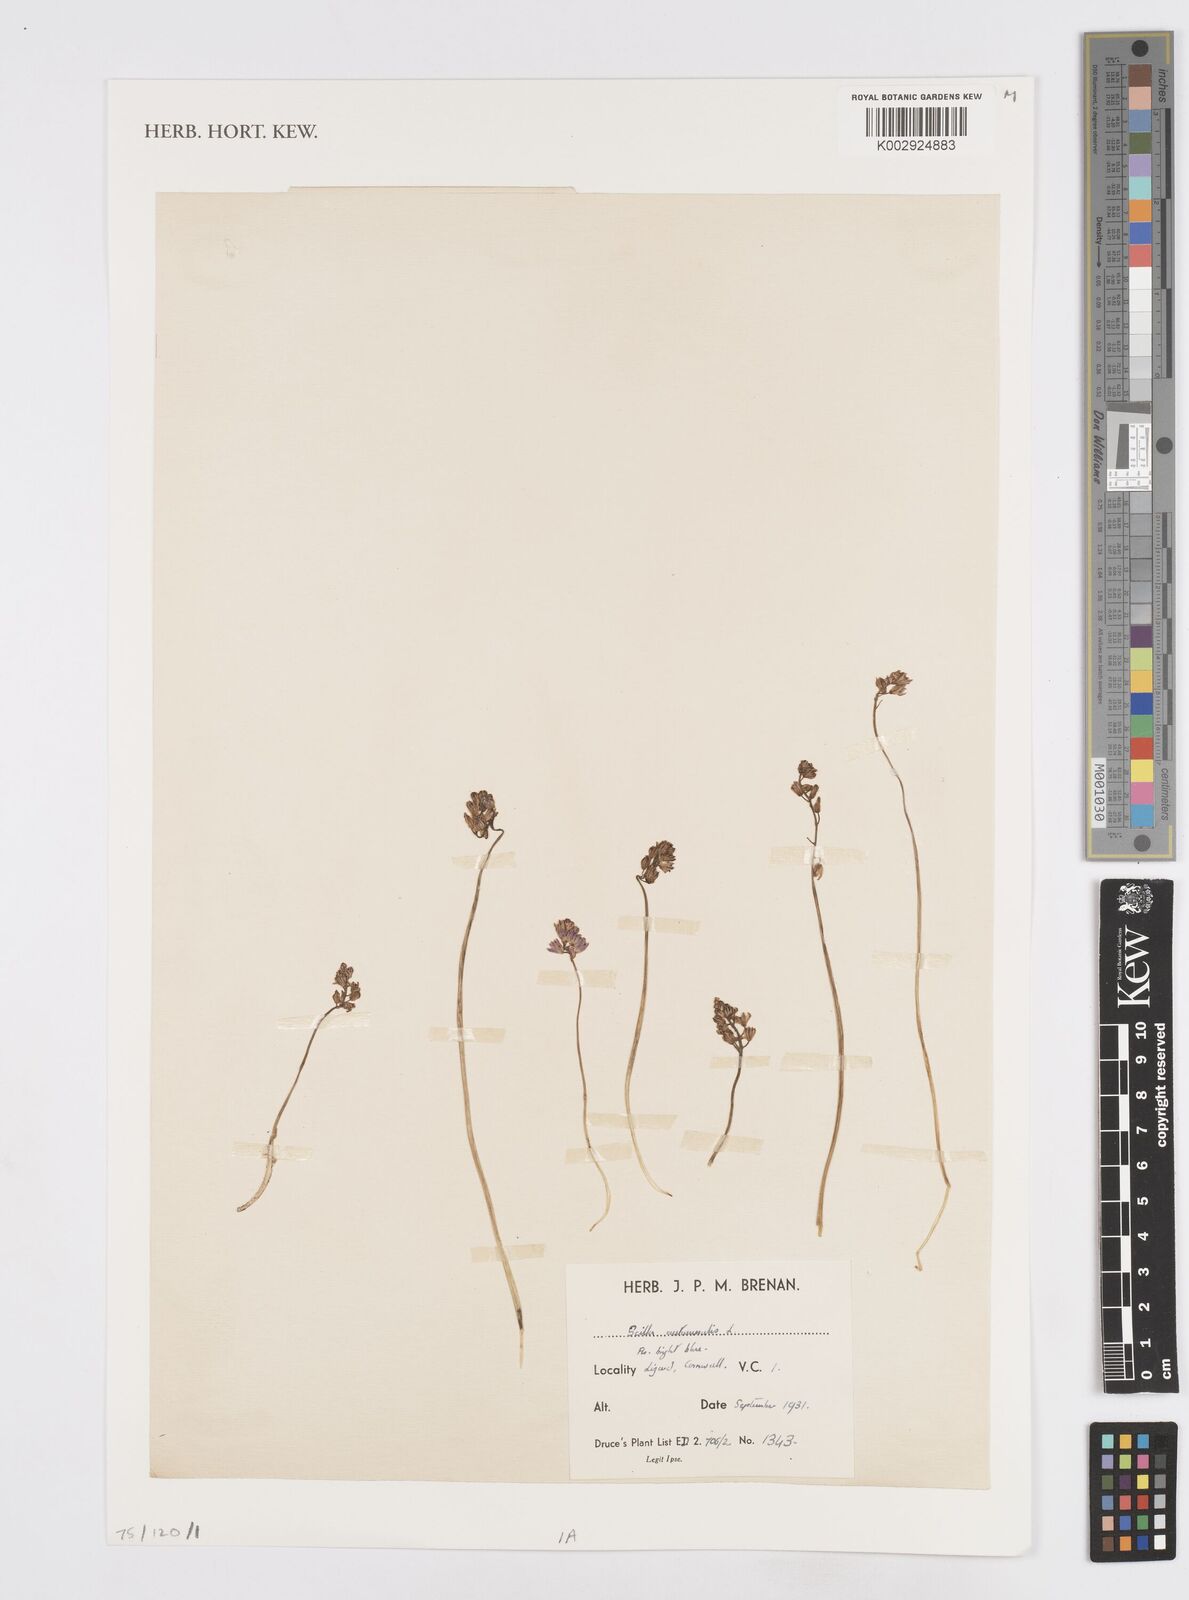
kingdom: Plantae
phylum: Tracheophyta
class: Liliopsida
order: Asparagales
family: Asparagaceae
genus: Prospero
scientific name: Prospero autumnale
